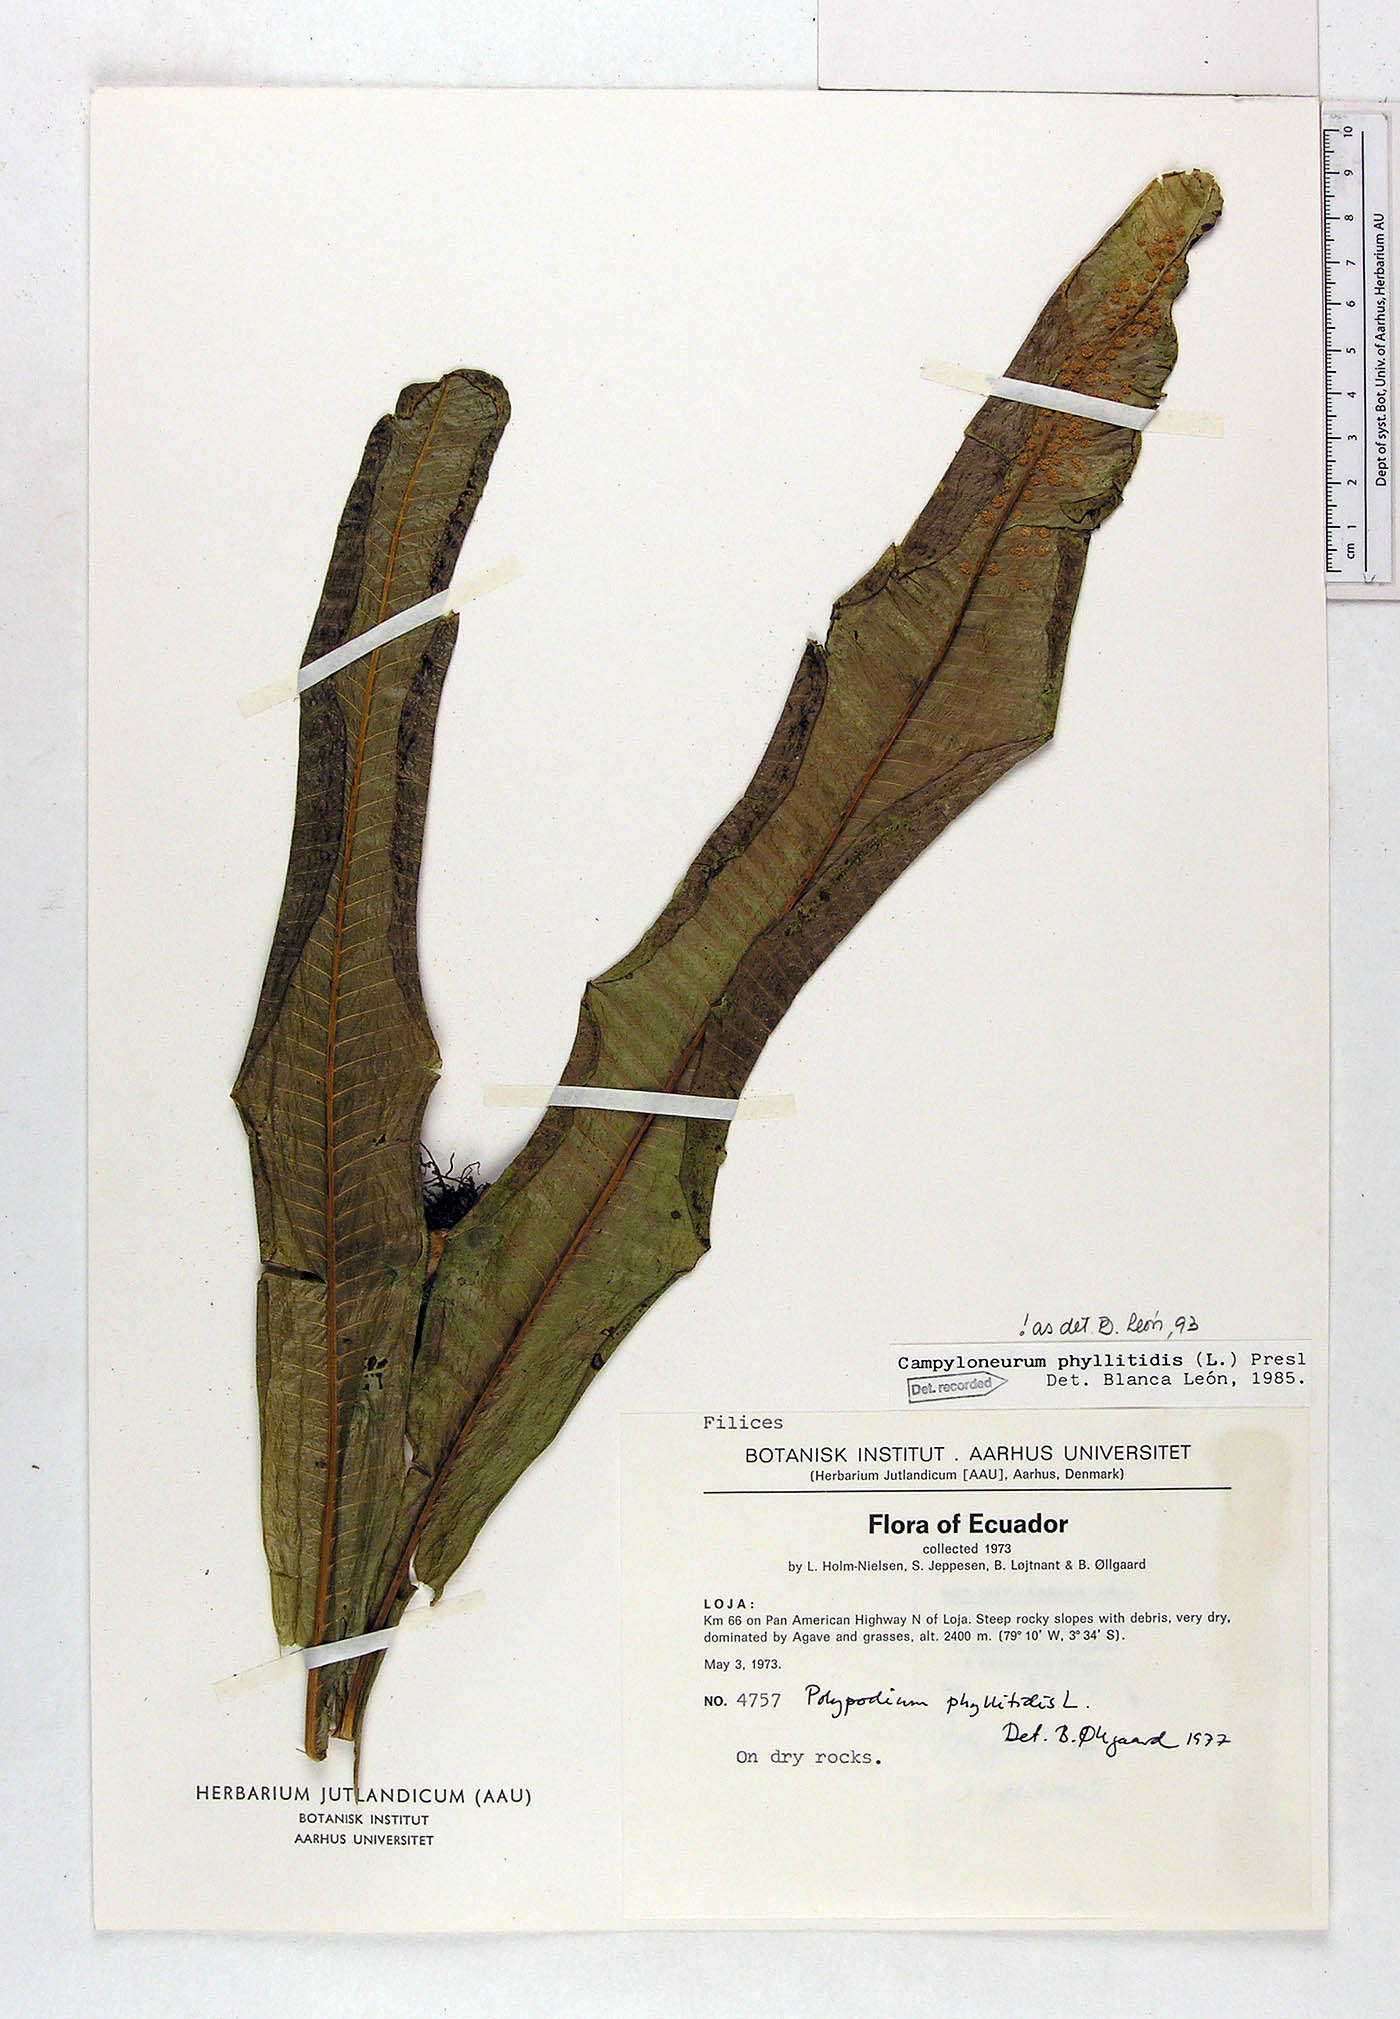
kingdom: Plantae
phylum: Tracheophyta
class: Polypodiopsida
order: Polypodiales
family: Polypodiaceae
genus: Campyloneurum
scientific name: Campyloneurum phyllitidis
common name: Cow-tongue fern
